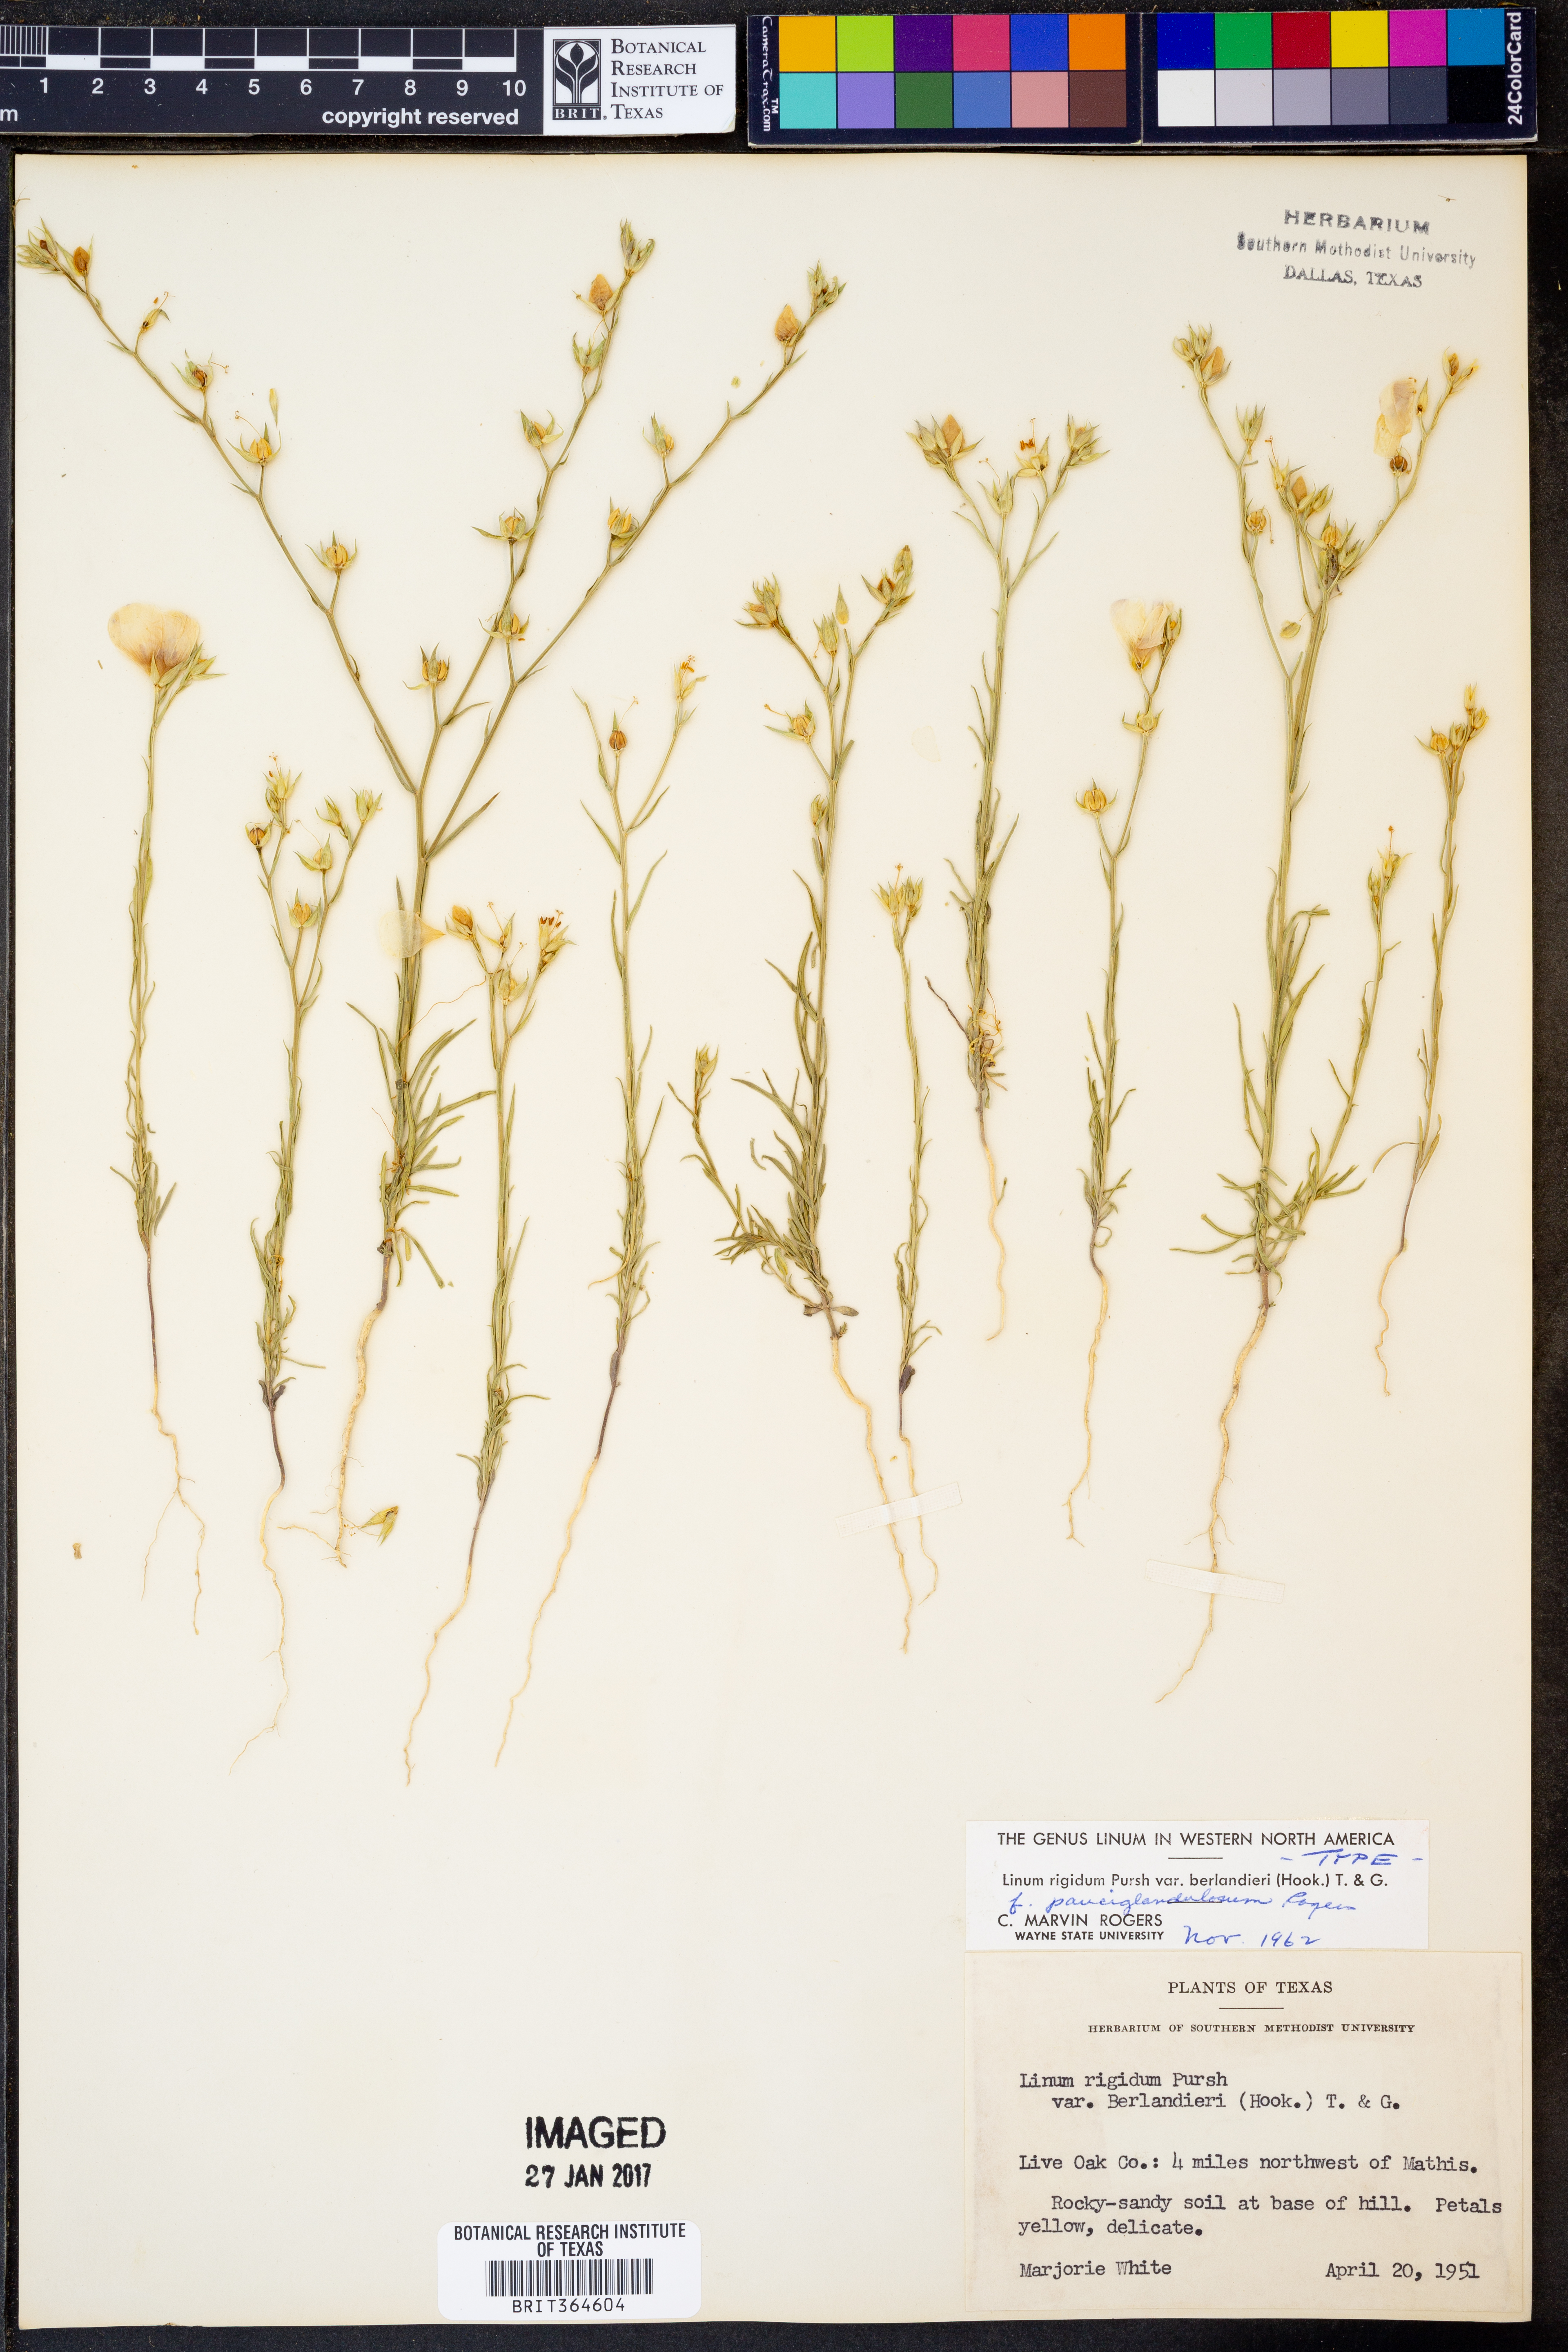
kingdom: Plantae
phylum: Tracheophyta
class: Magnoliopsida
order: Malpighiales
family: Linaceae
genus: Linum
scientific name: Linum berlandieri
